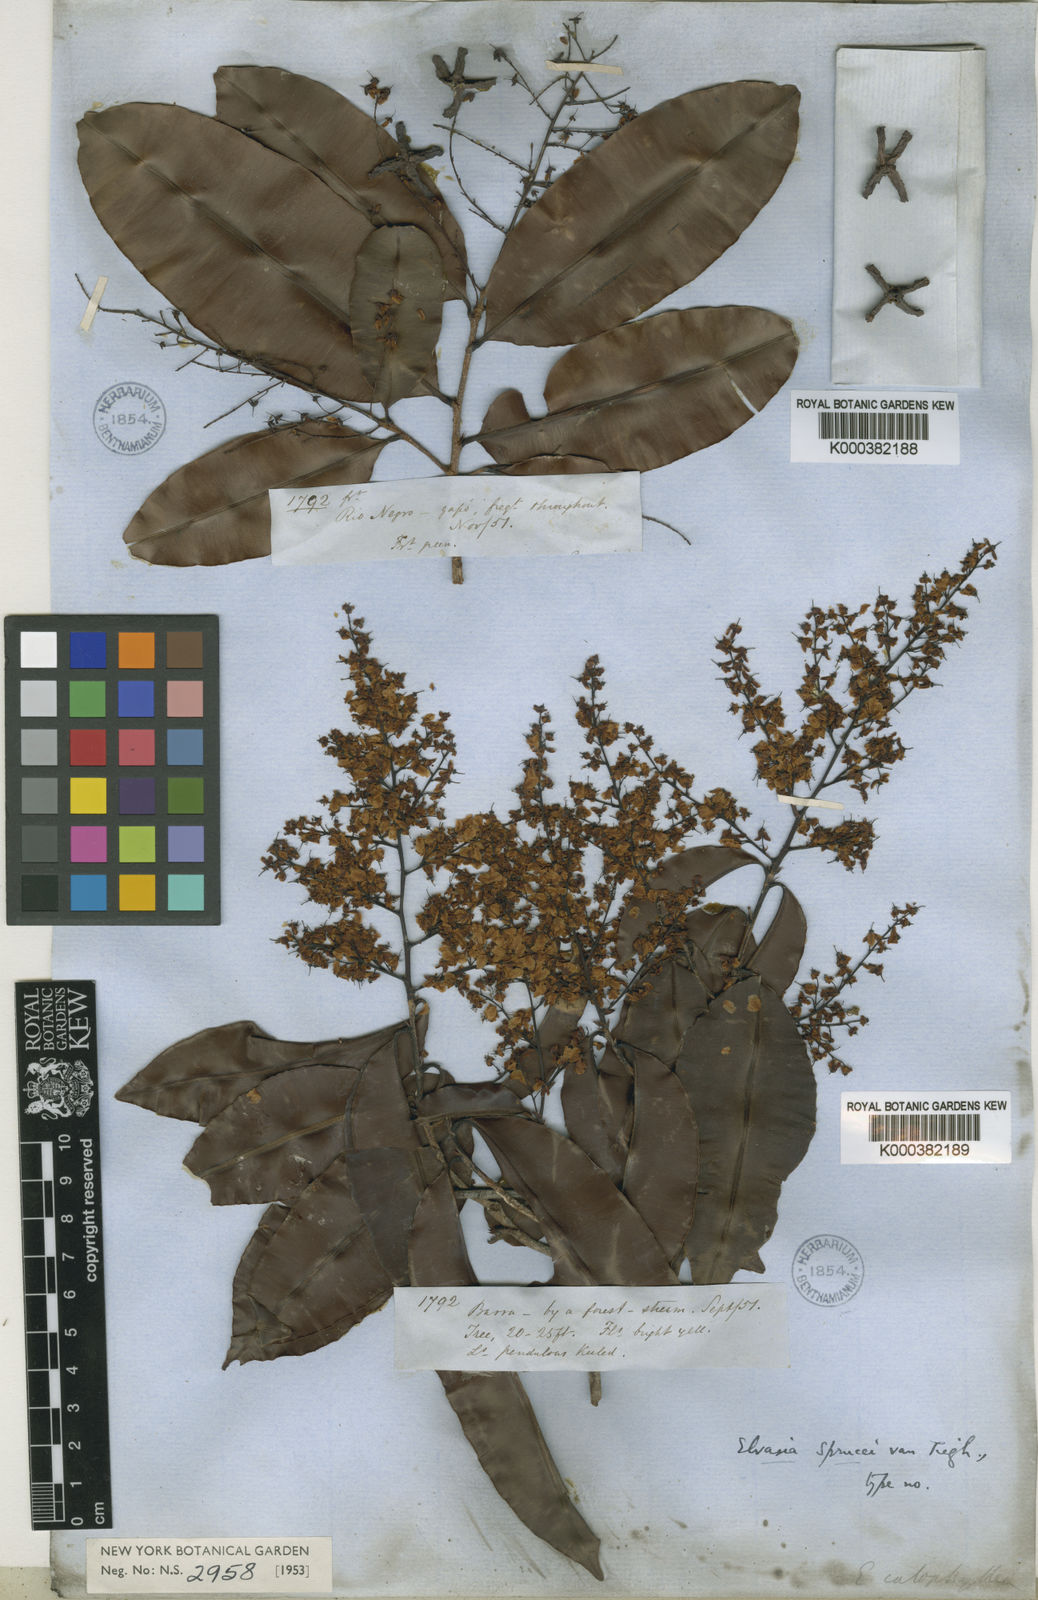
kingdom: Plantae
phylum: Tracheophyta
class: Magnoliopsida
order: Malpighiales
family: Ochnaceae
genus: Elvasia
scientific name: Elvasia calophyllea
